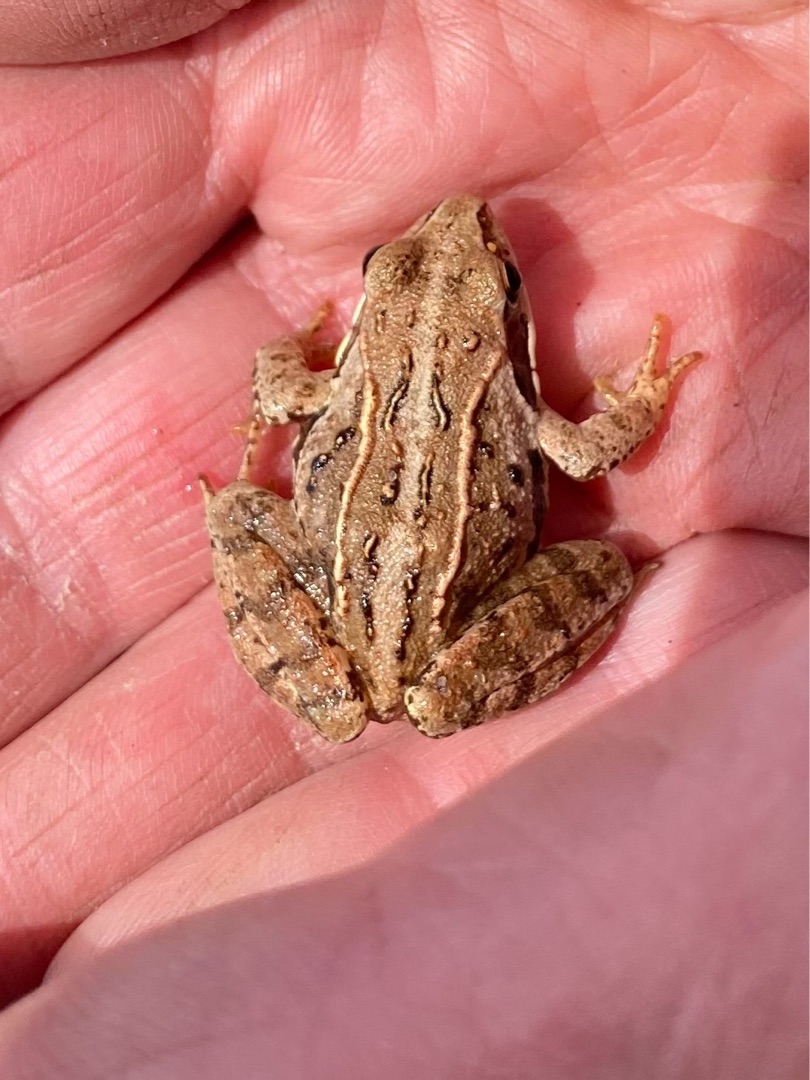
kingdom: Animalia
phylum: Chordata
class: Amphibia
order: Anura
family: Ranidae
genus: Rana
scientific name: Rana arvalis
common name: Spidssnudet frø
